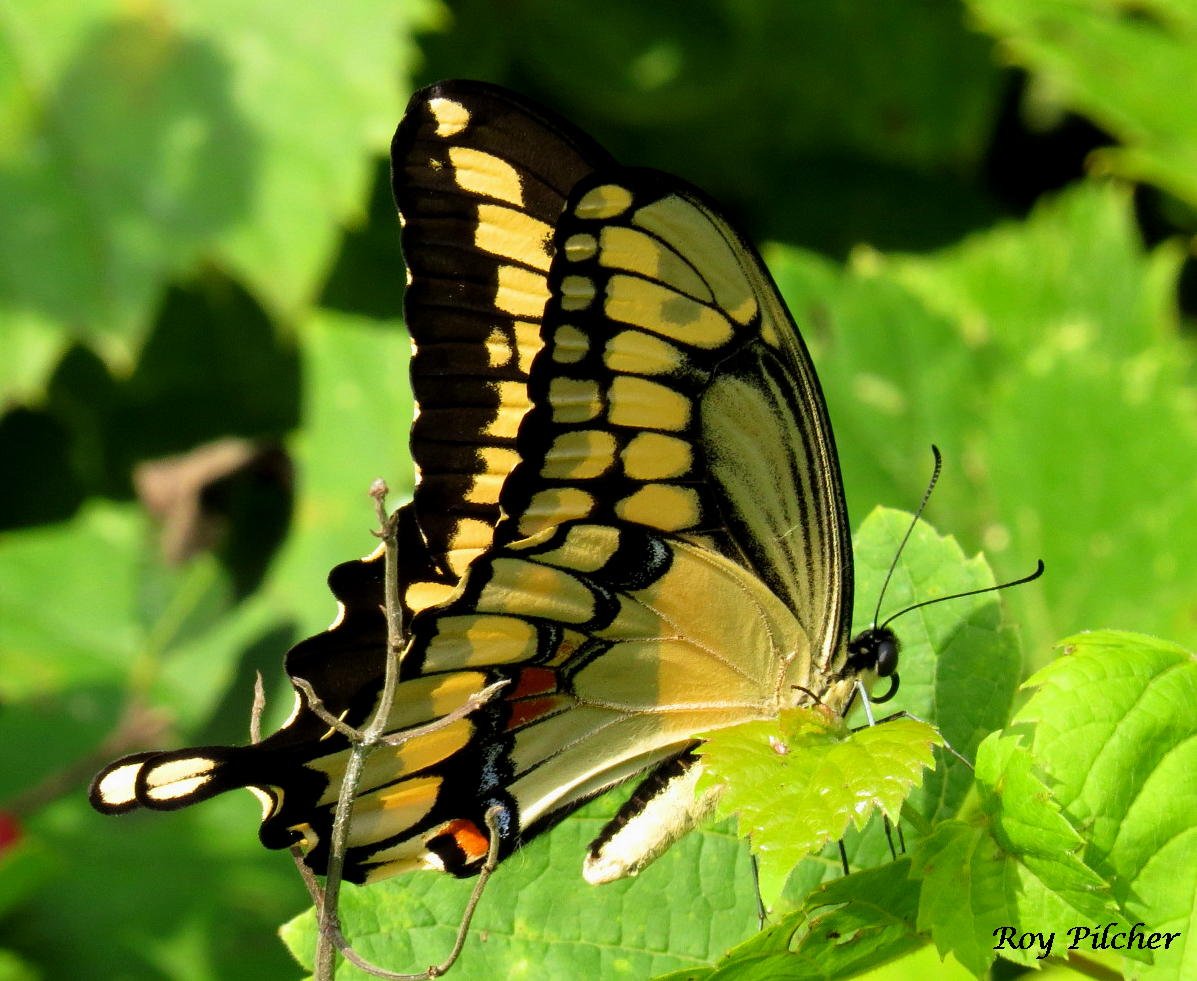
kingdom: Animalia
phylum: Arthropoda
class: Insecta
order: Lepidoptera
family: Papilionidae
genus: Papilio
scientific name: Papilio cresphontes
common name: Eastern Giant Swallowtail
